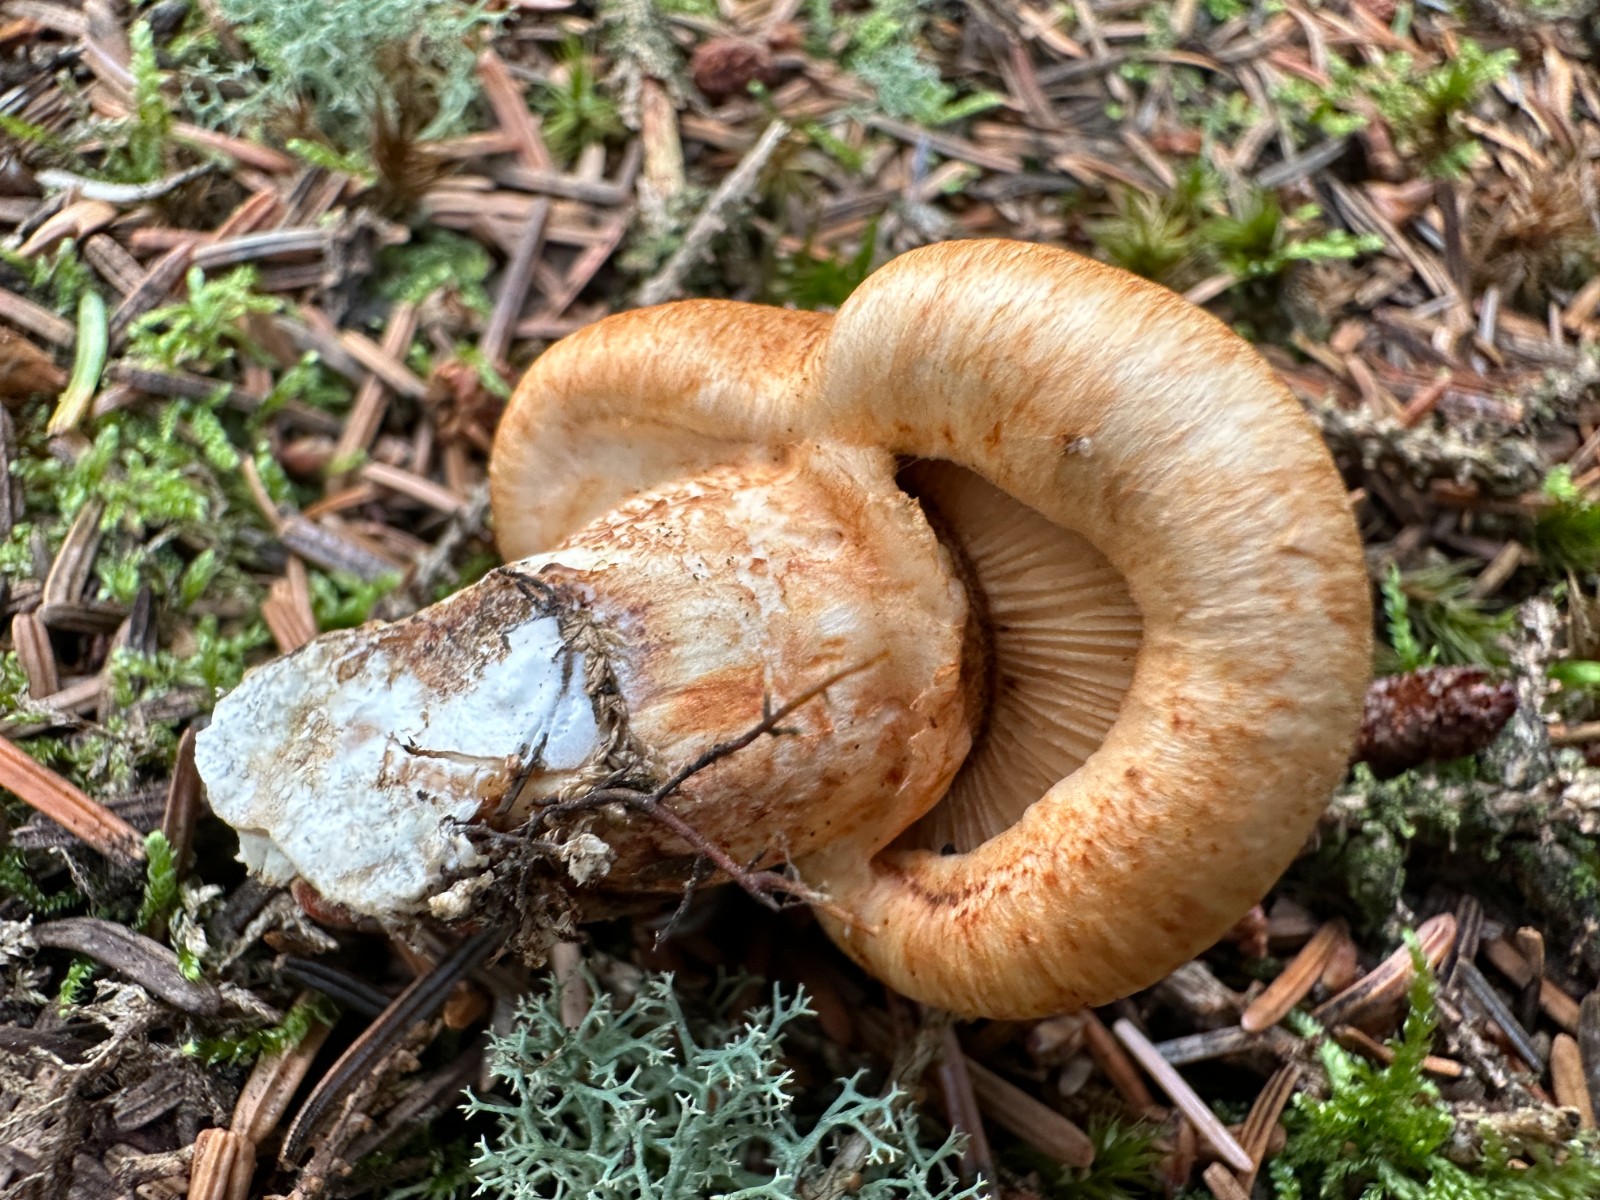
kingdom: Fungi
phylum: Basidiomycota
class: Agaricomycetes
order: Agaricales
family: Tricholomataceae
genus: Tricholoma
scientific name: Tricholoma focale
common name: halsbånd-ridderhat
